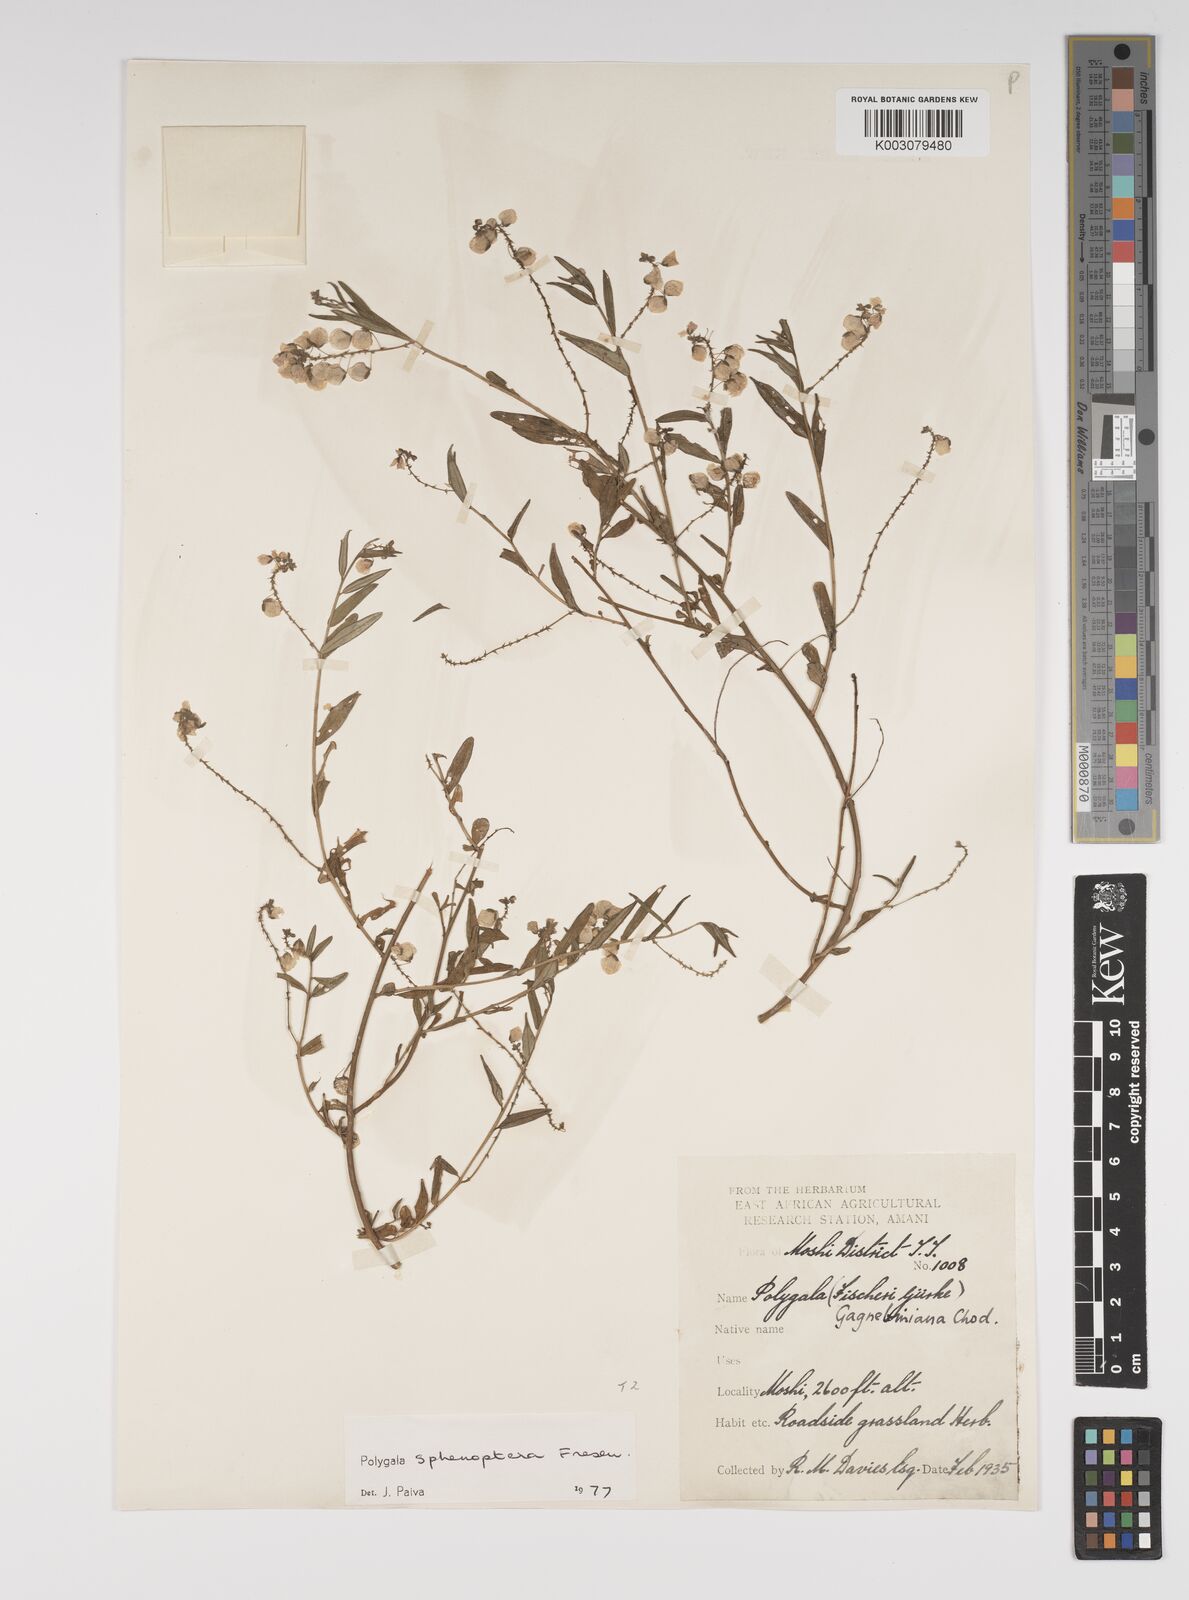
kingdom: Plantae
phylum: Tracheophyta
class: Magnoliopsida
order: Fabales
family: Polygalaceae
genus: Polygala
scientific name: Polygala sphenoptera
